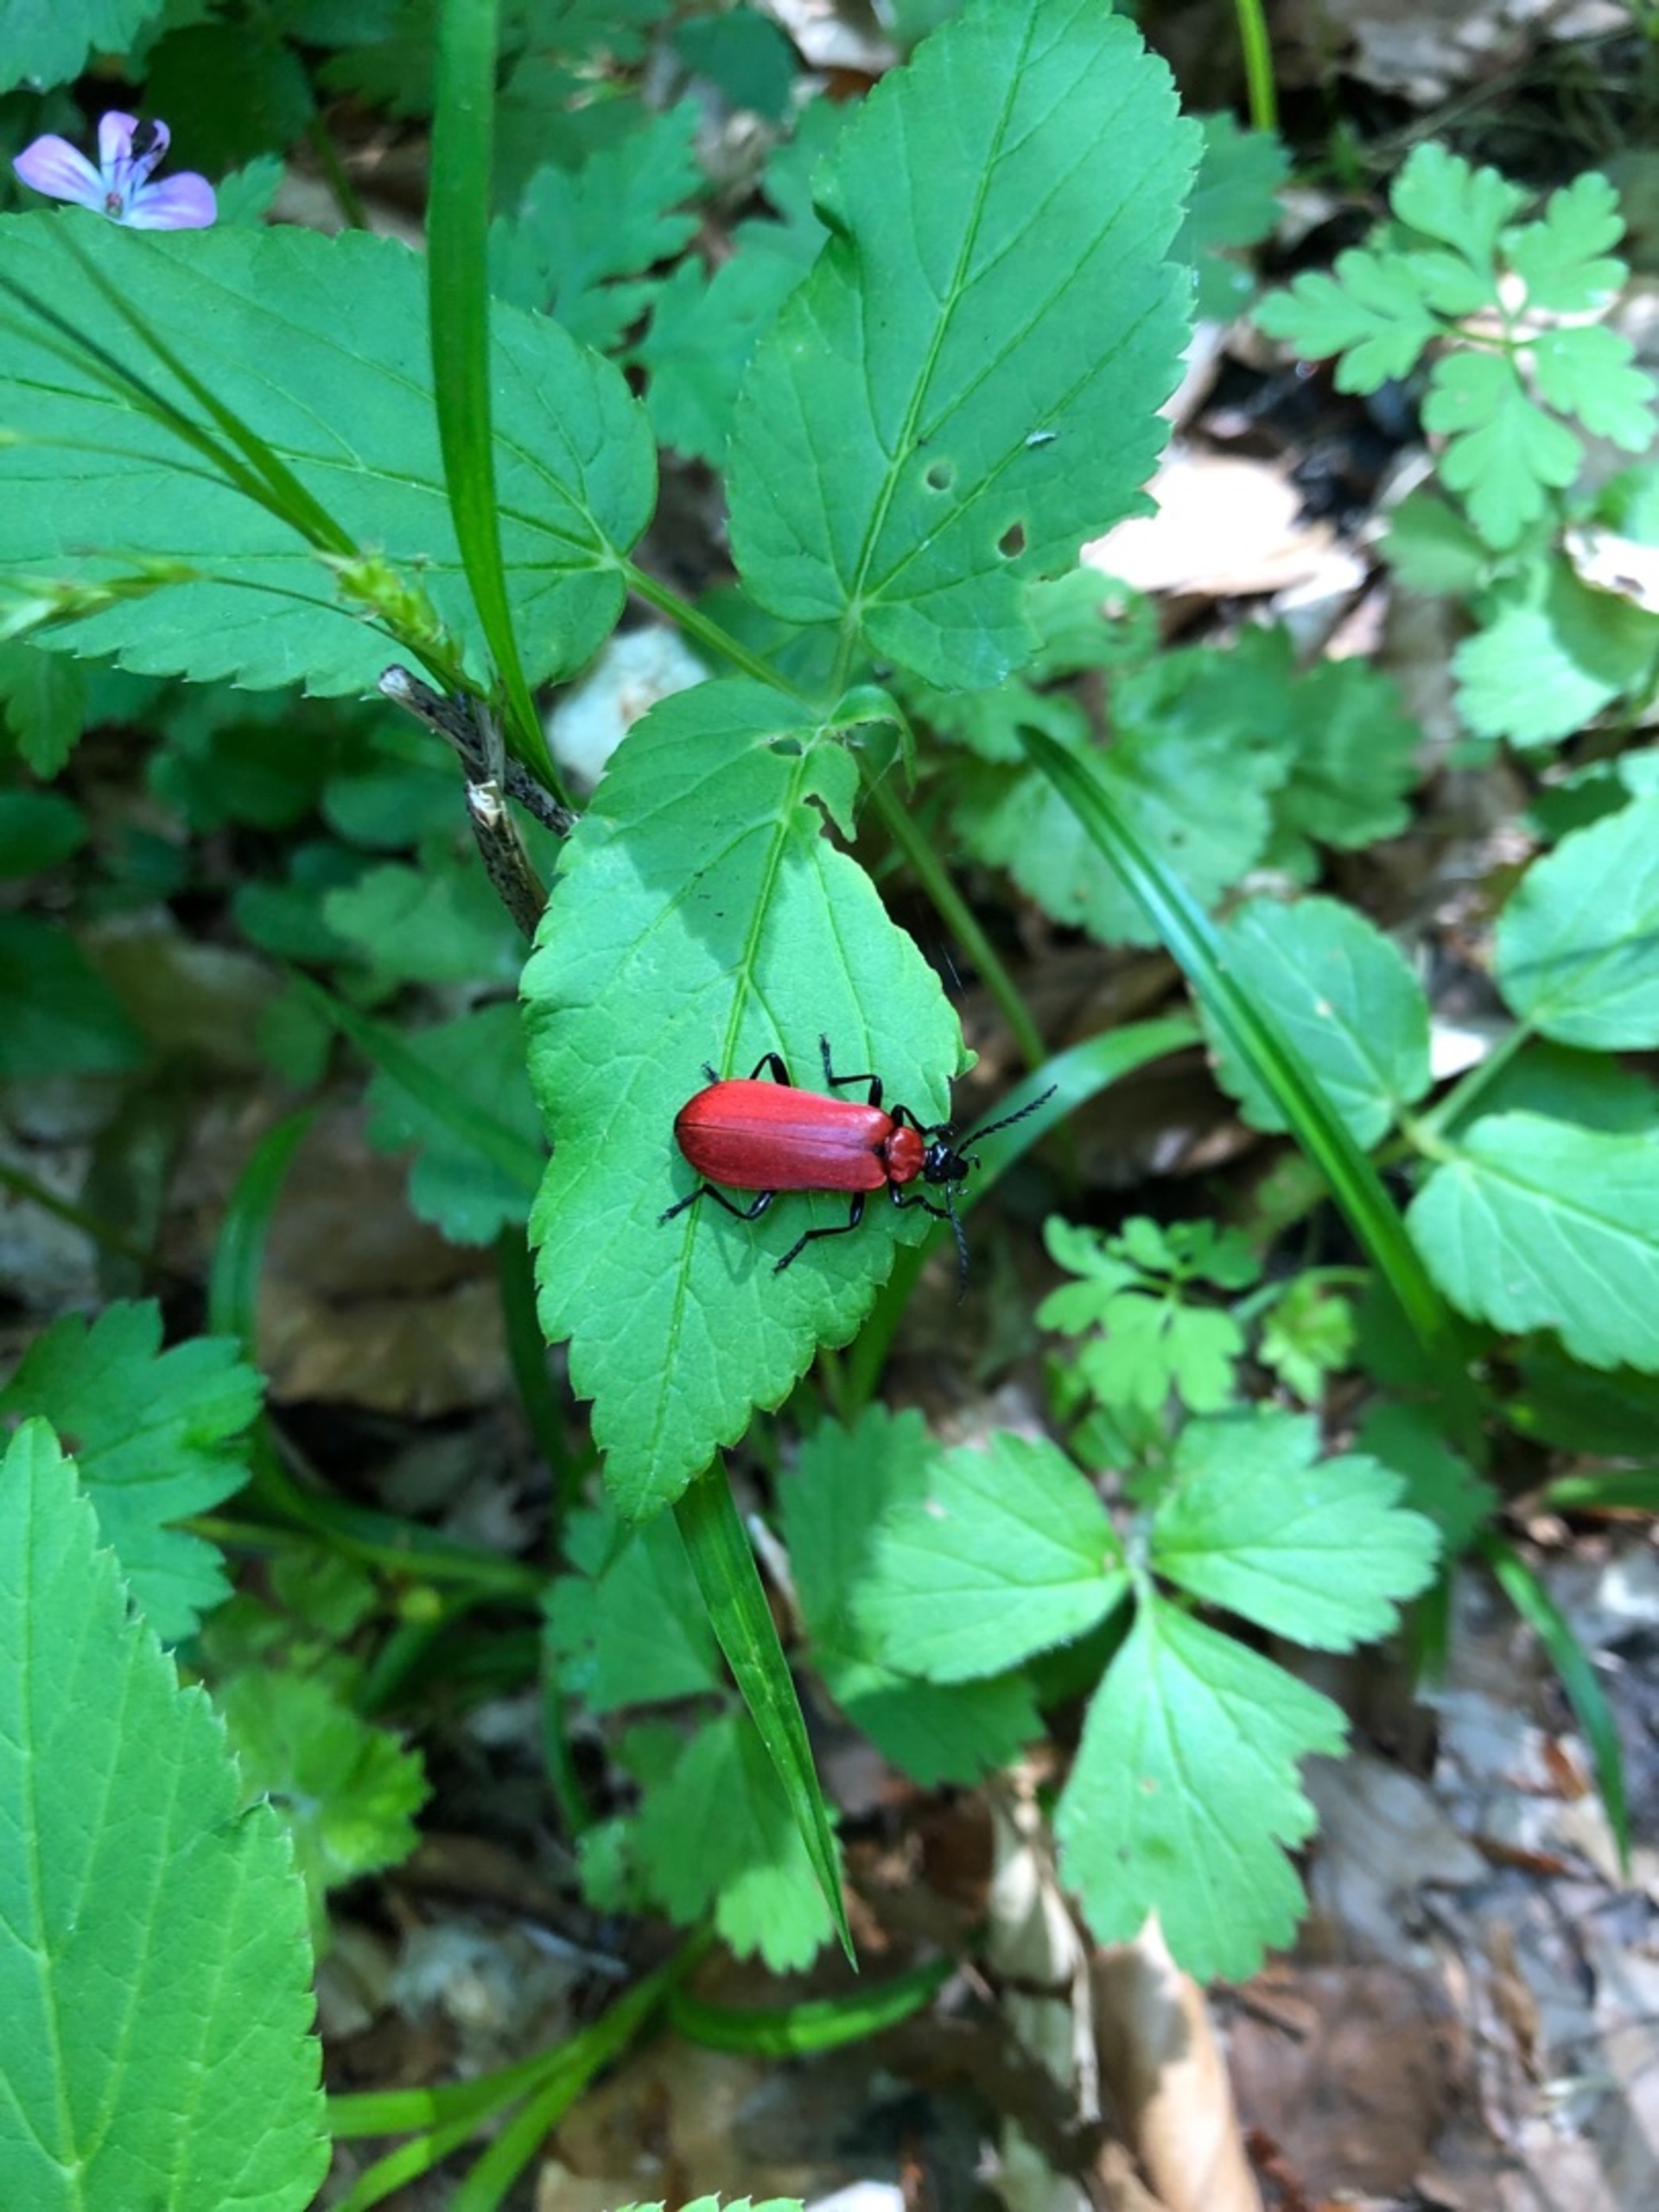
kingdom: Animalia
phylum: Arthropoda
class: Insecta
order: Coleoptera
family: Pyrochroidae
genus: Pyrochroa
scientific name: Pyrochroa coccinea
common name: Sorthovedet kardinalbille
